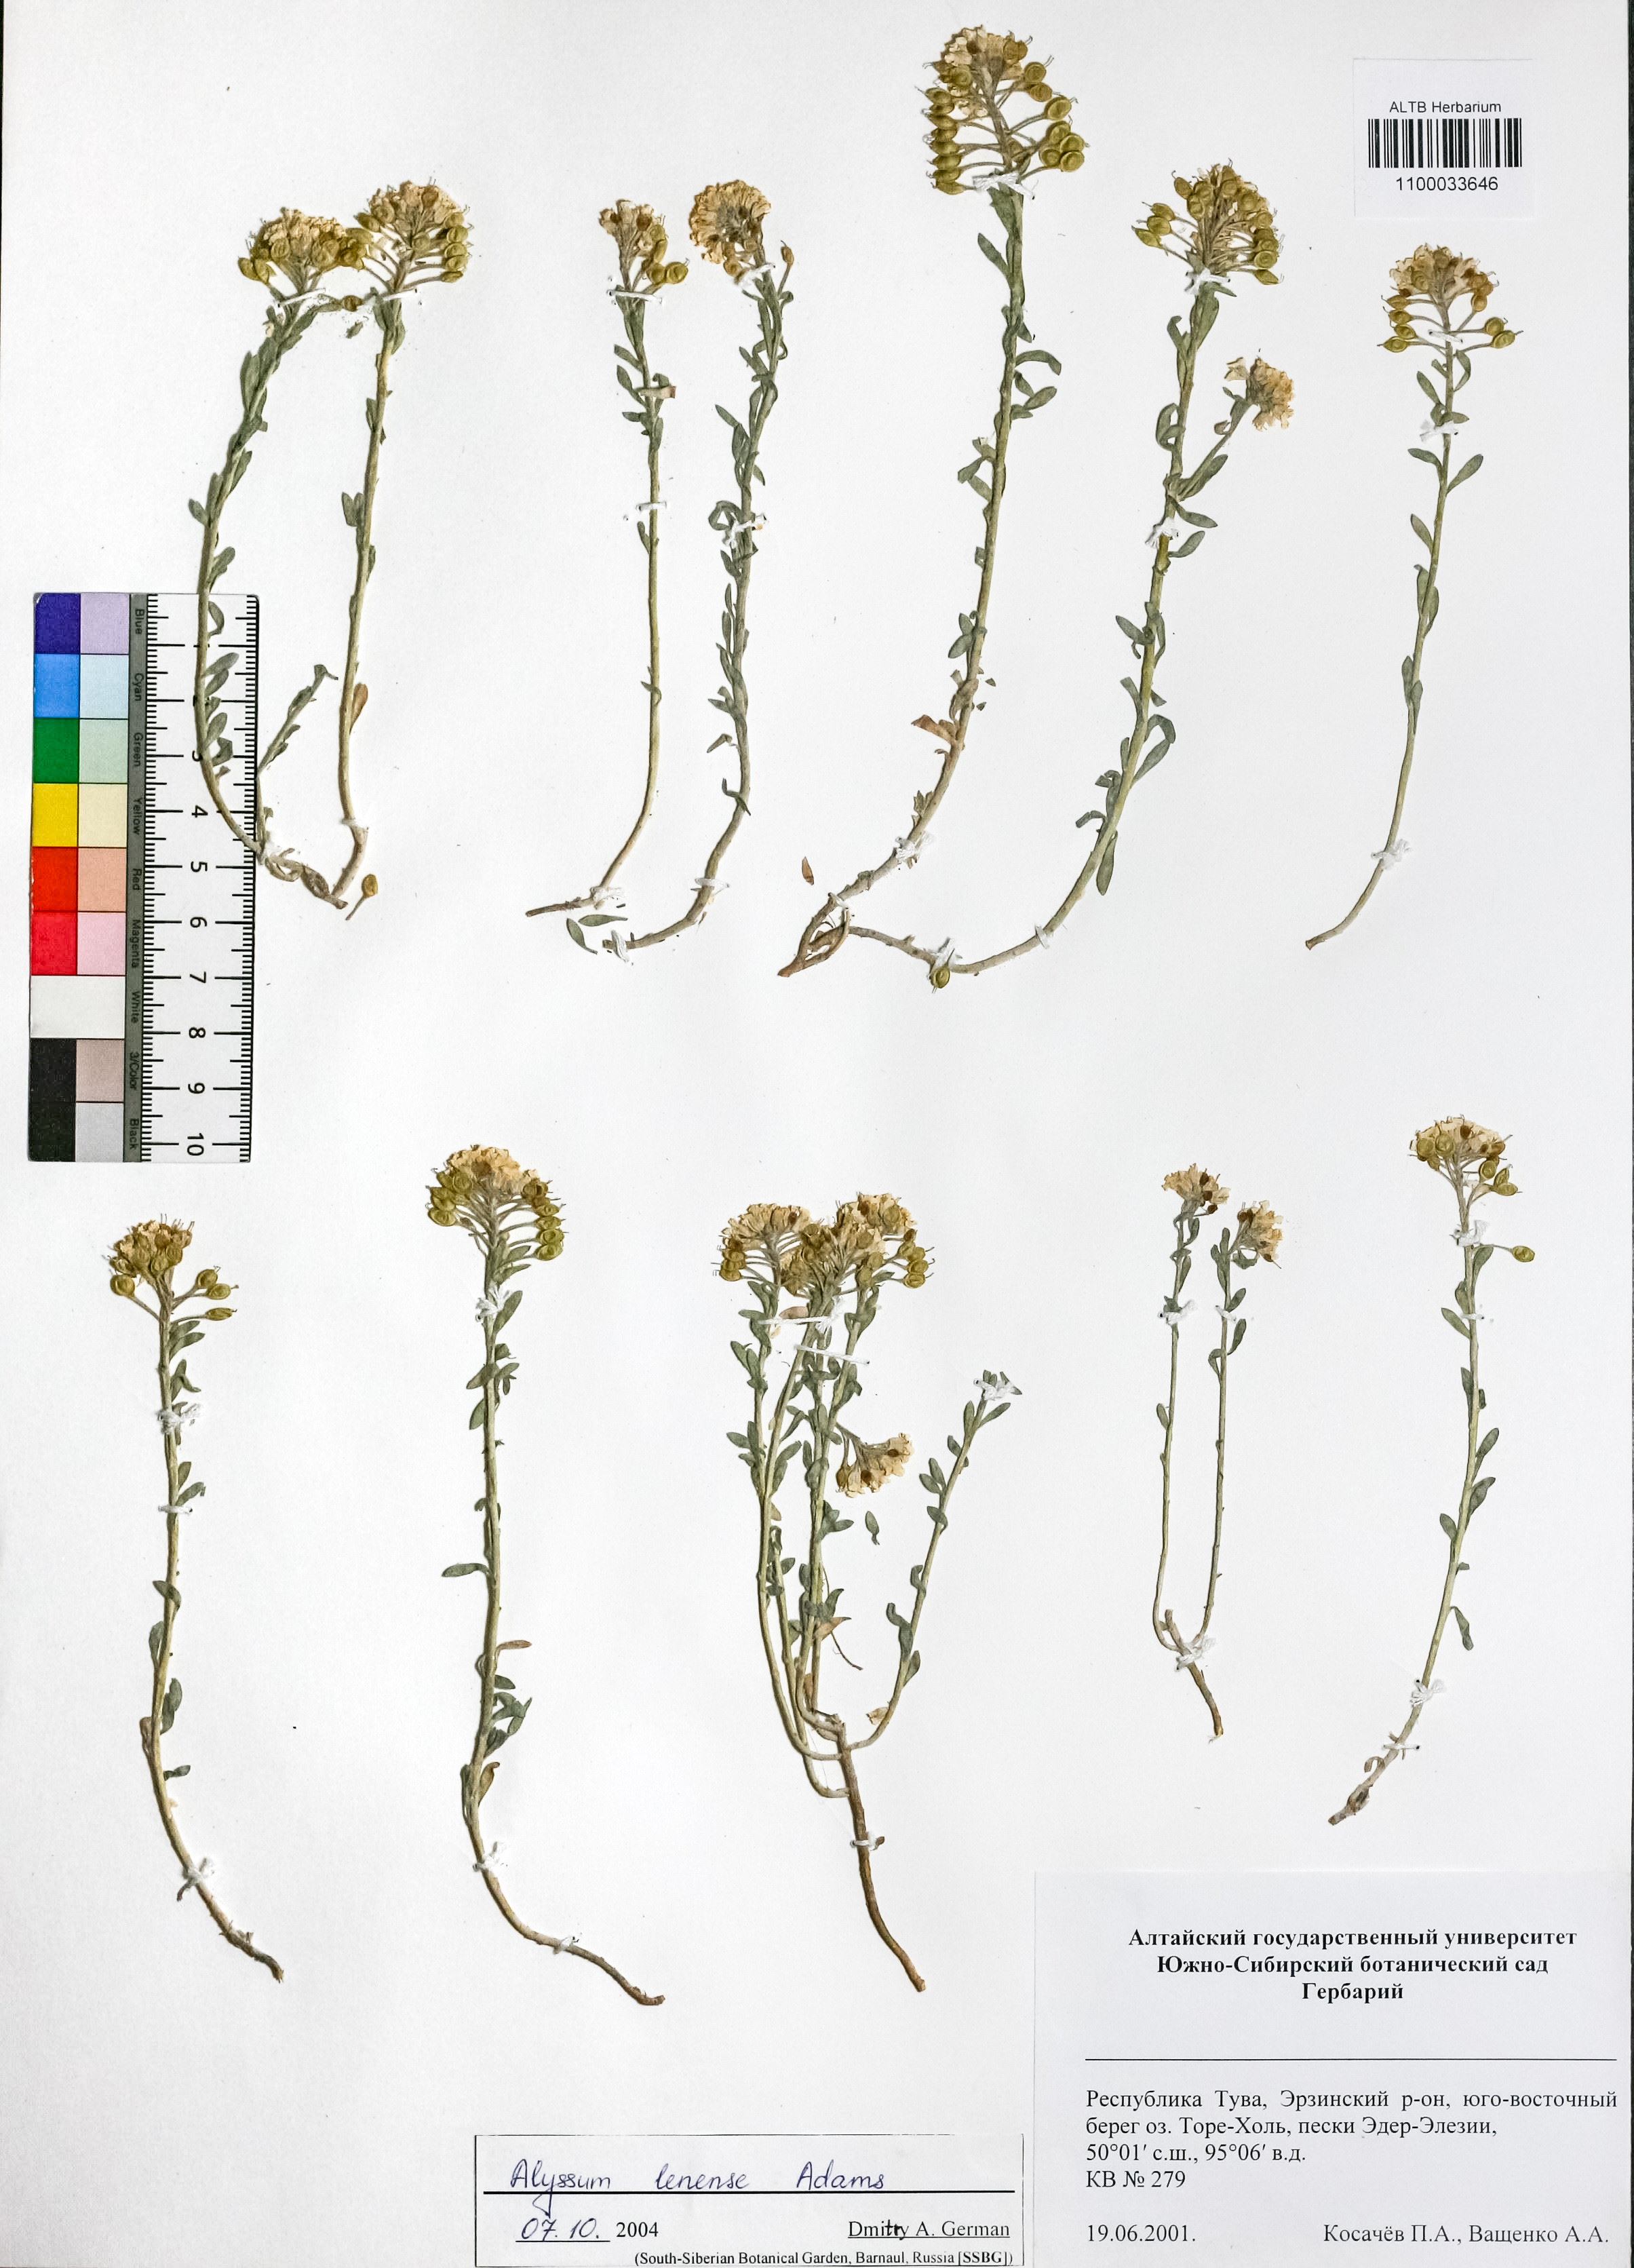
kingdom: Plantae
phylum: Tracheophyta
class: Magnoliopsida
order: Brassicales
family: Brassicaceae
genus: Alyssum
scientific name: Alyssum lenense
